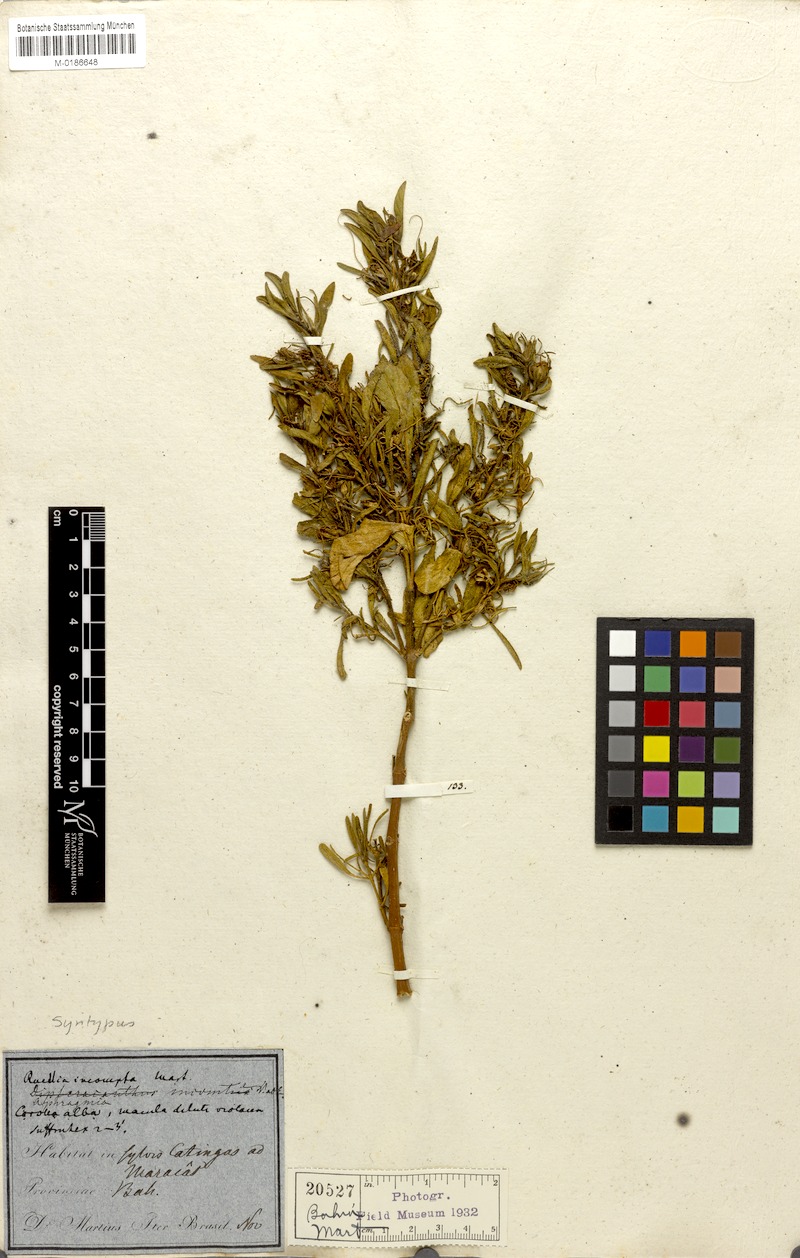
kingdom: Plantae
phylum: Tracheophyta
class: Magnoliopsida
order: Lamiales
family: Acanthaceae
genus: Ruellia
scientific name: Ruellia incomta
